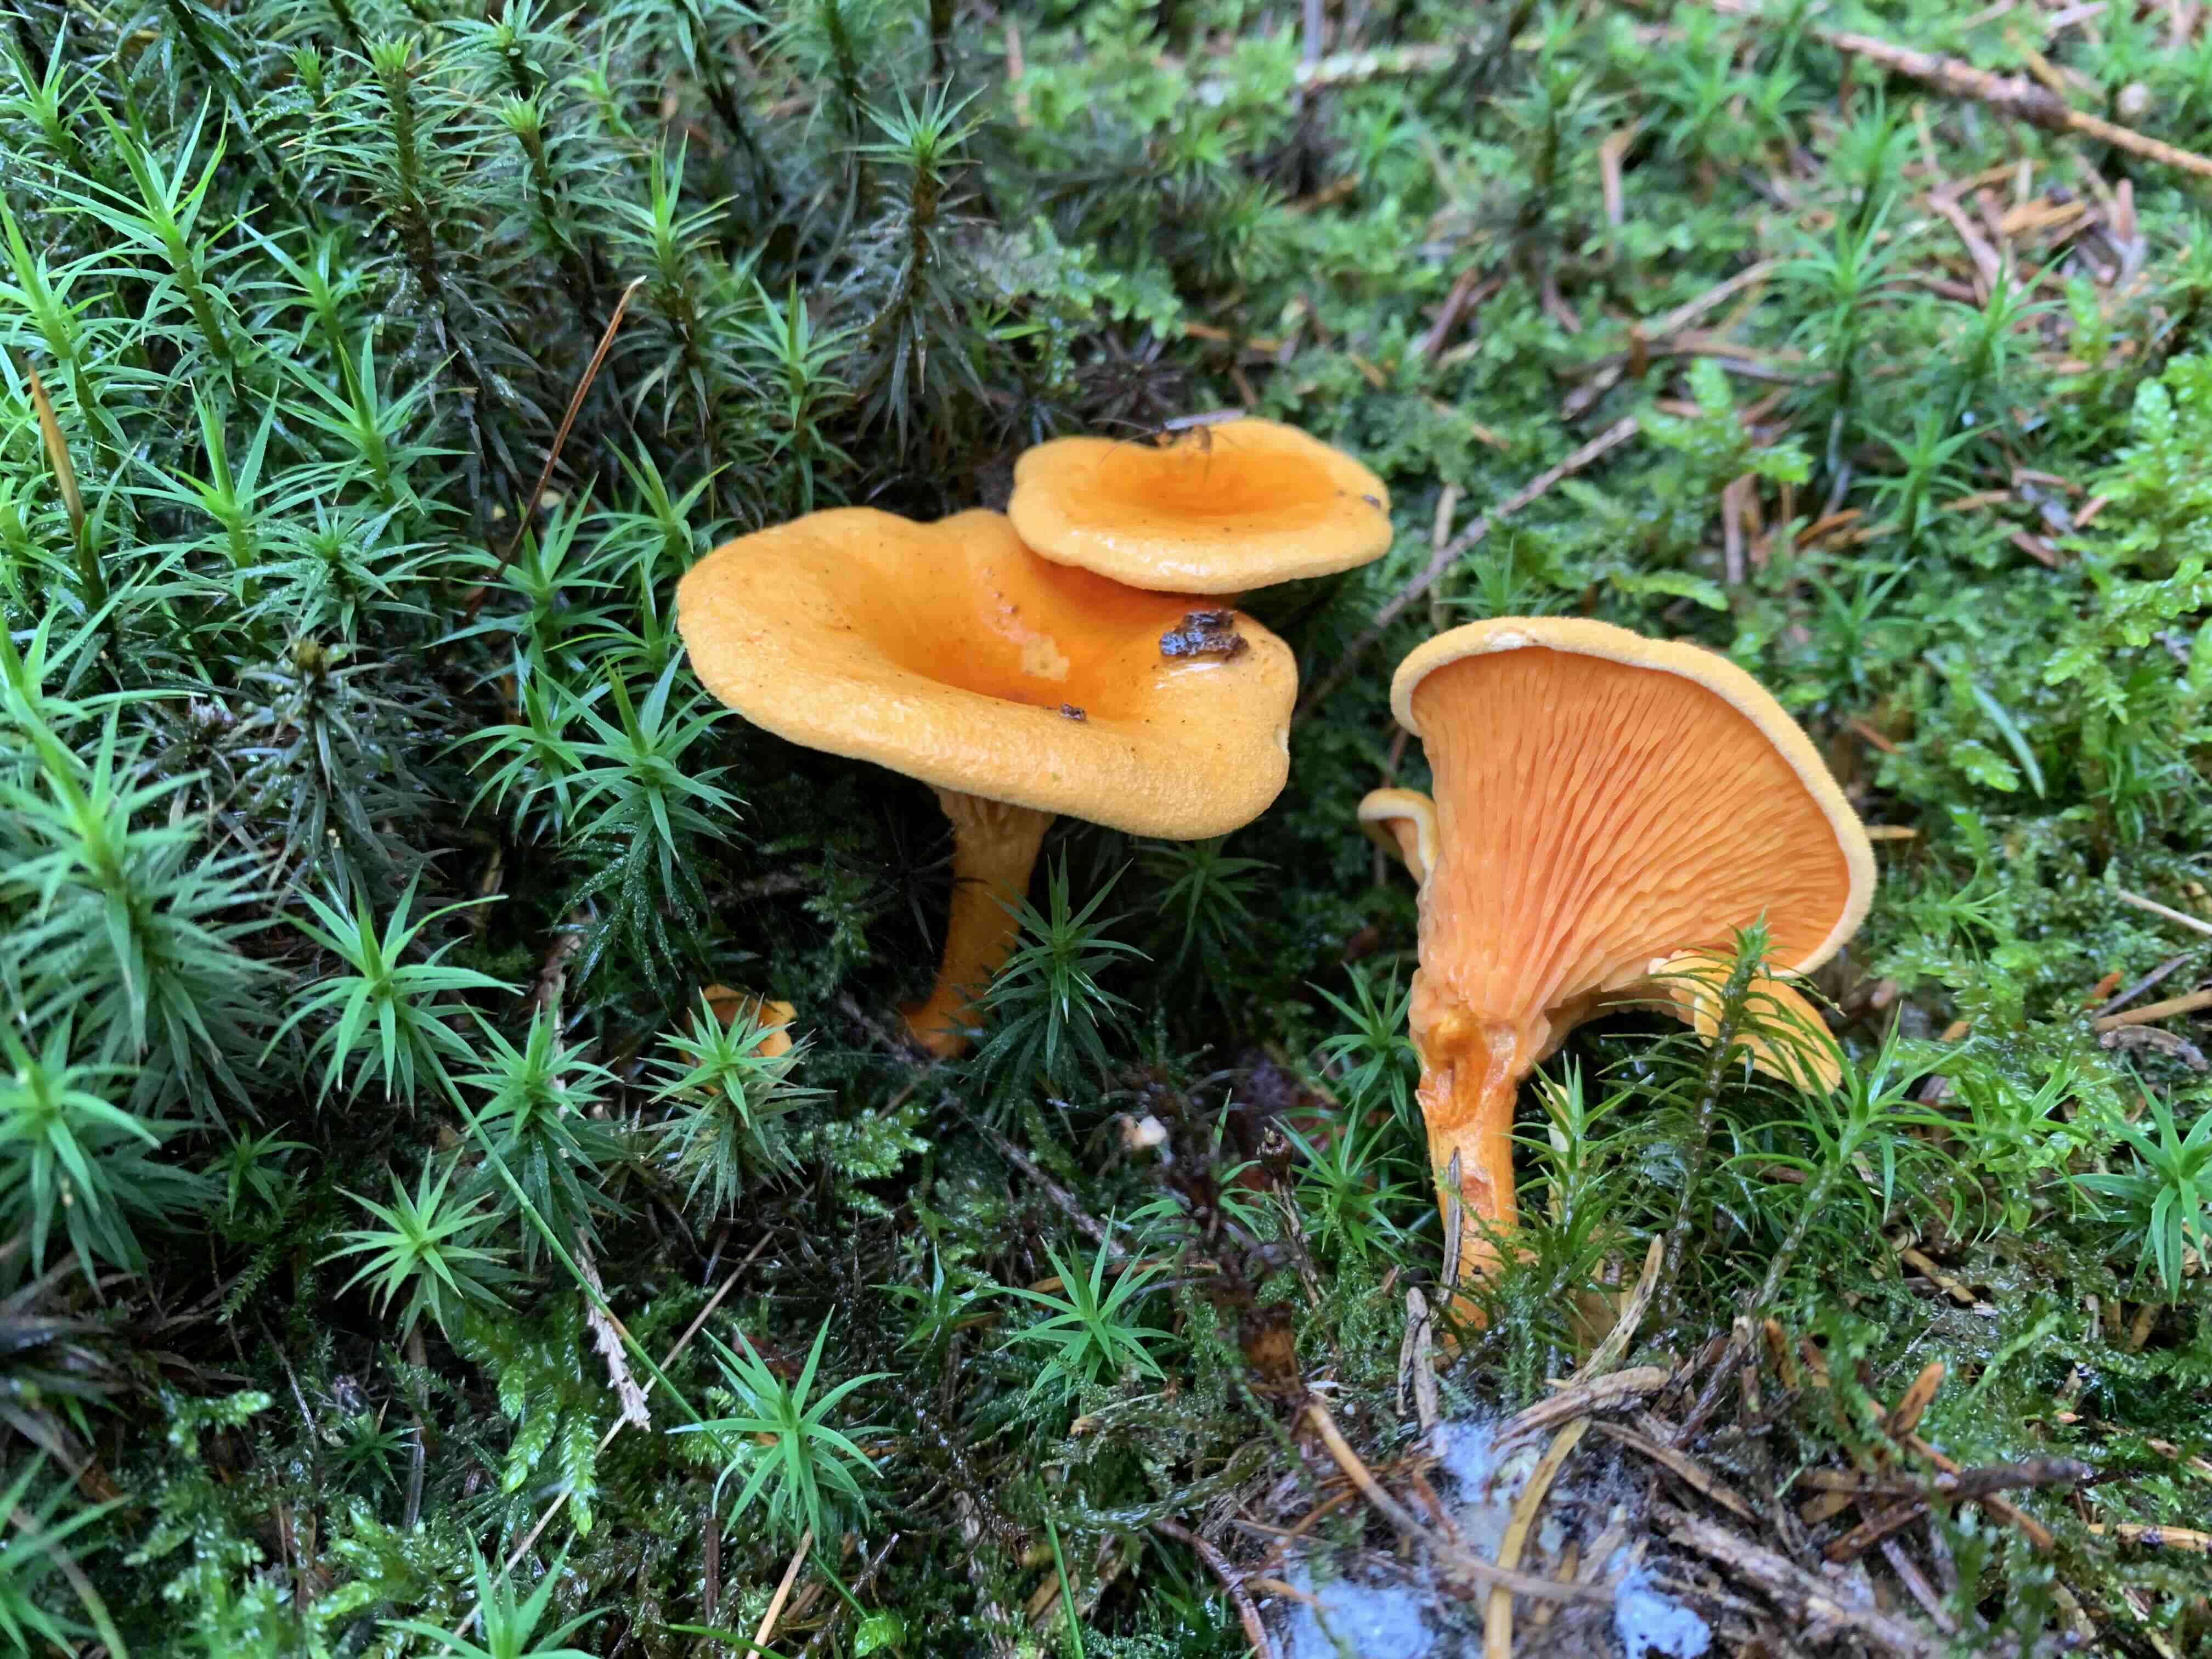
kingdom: Fungi
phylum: Basidiomycota
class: Agaricomycetes
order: Boletales
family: Hygrophoropsidaceae
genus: Hygrophoropsis
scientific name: Hygrophoropsis aurantiaca
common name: almindelig orangekantarel
